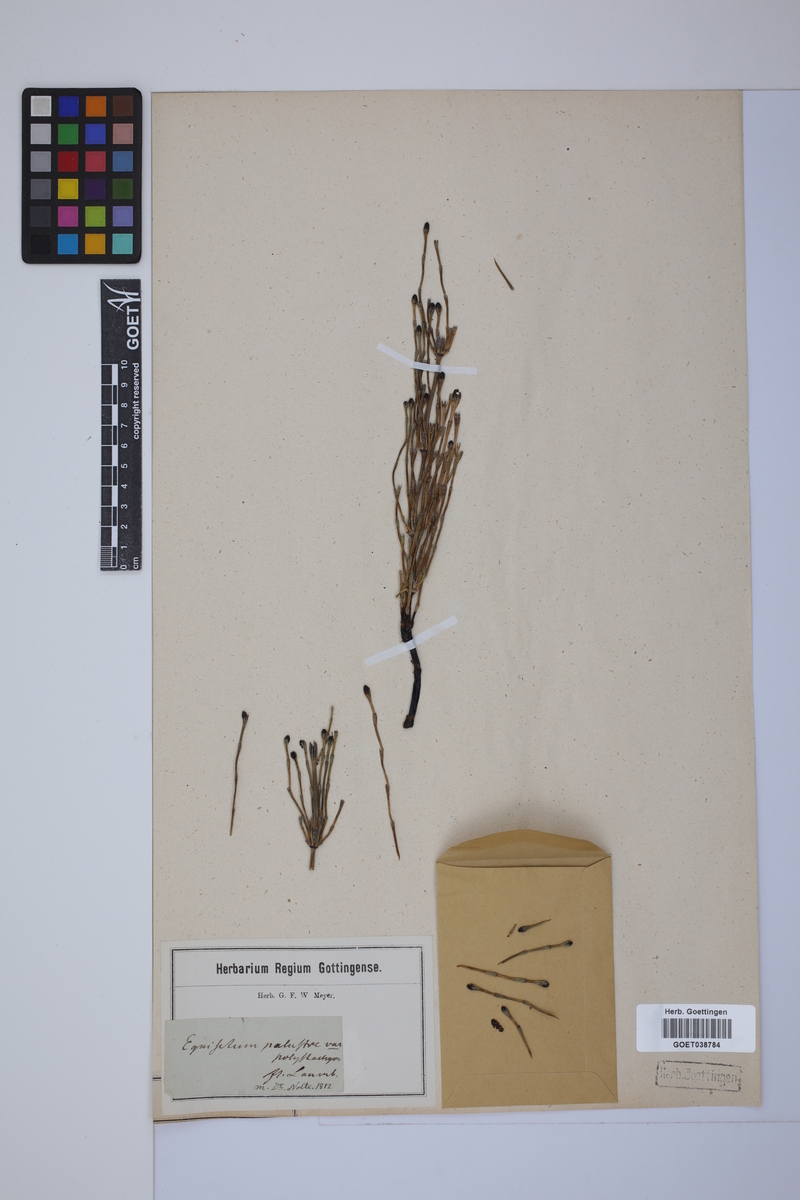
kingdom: Plantae
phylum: Tracheophyta
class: Polypodiopsida
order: Equisetales
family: Equisetaceae
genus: Equisetum
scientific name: Equisetum palustre
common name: Marsh horsetail
